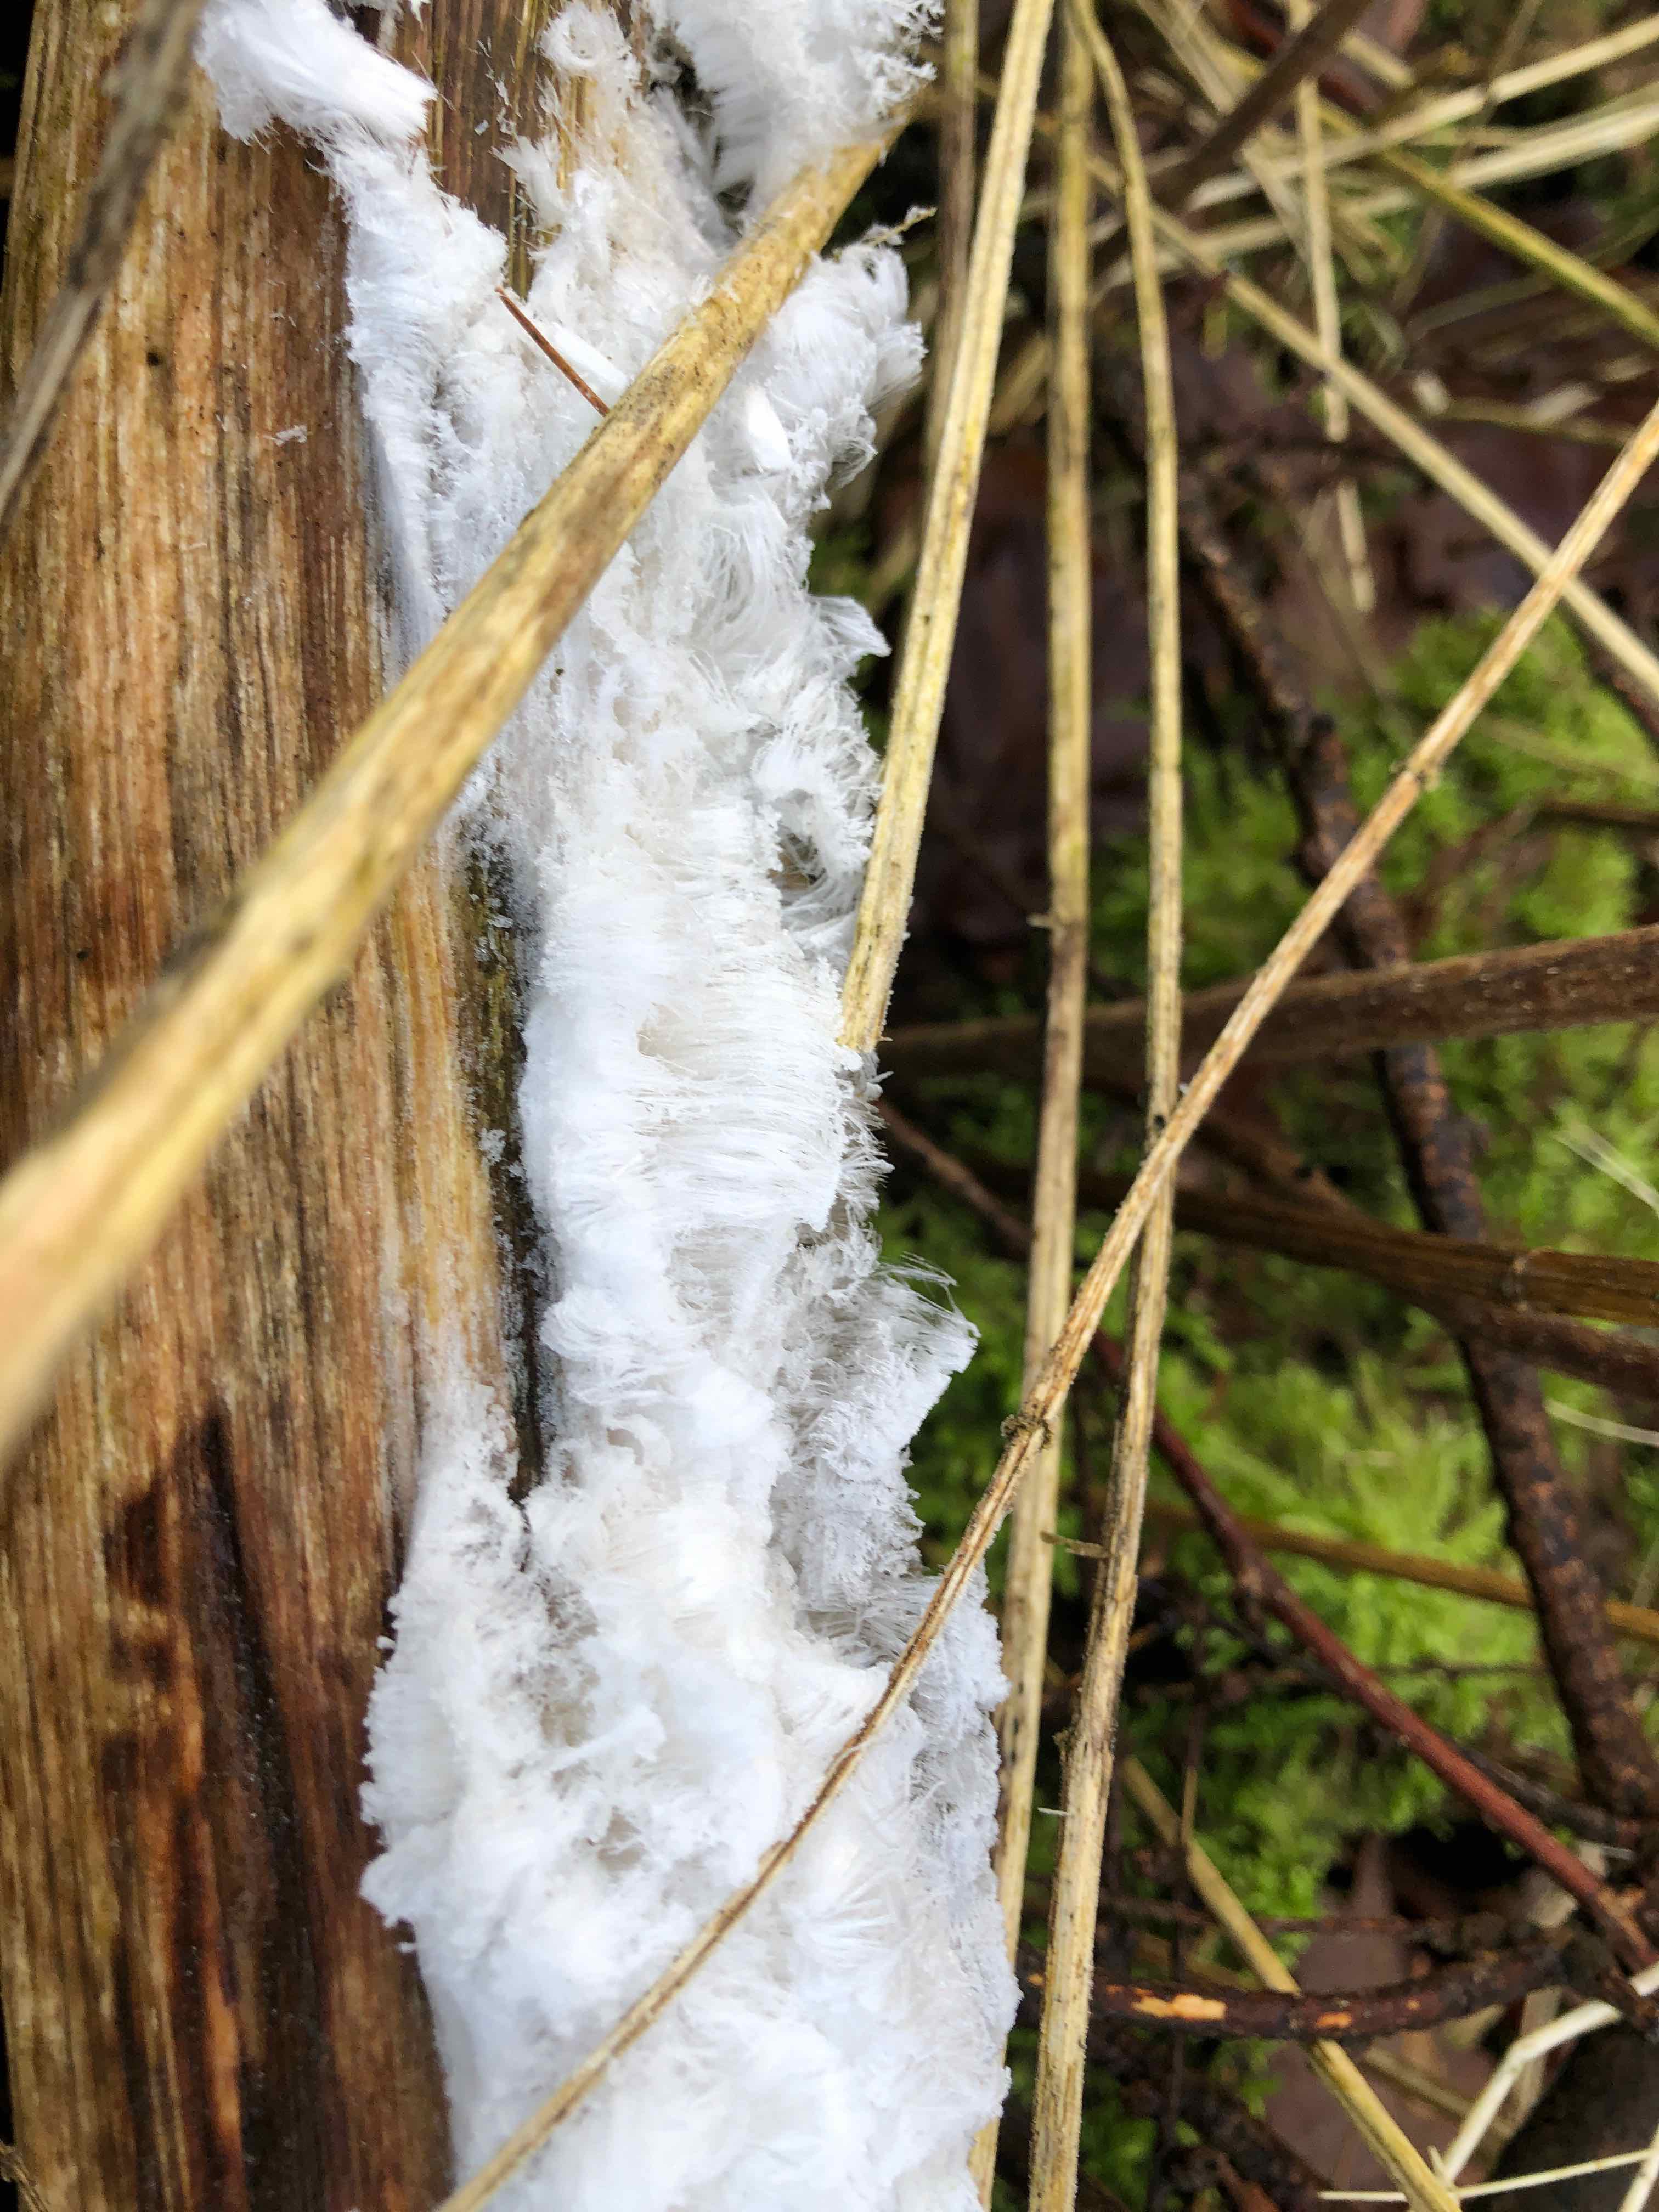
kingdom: Fungi
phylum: Basidiomycota
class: Tremellomycetes
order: Tremellales
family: Exidiaceae
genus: Exidiopsis
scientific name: Exidiopsis effusa
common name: smuk bævrehinde
